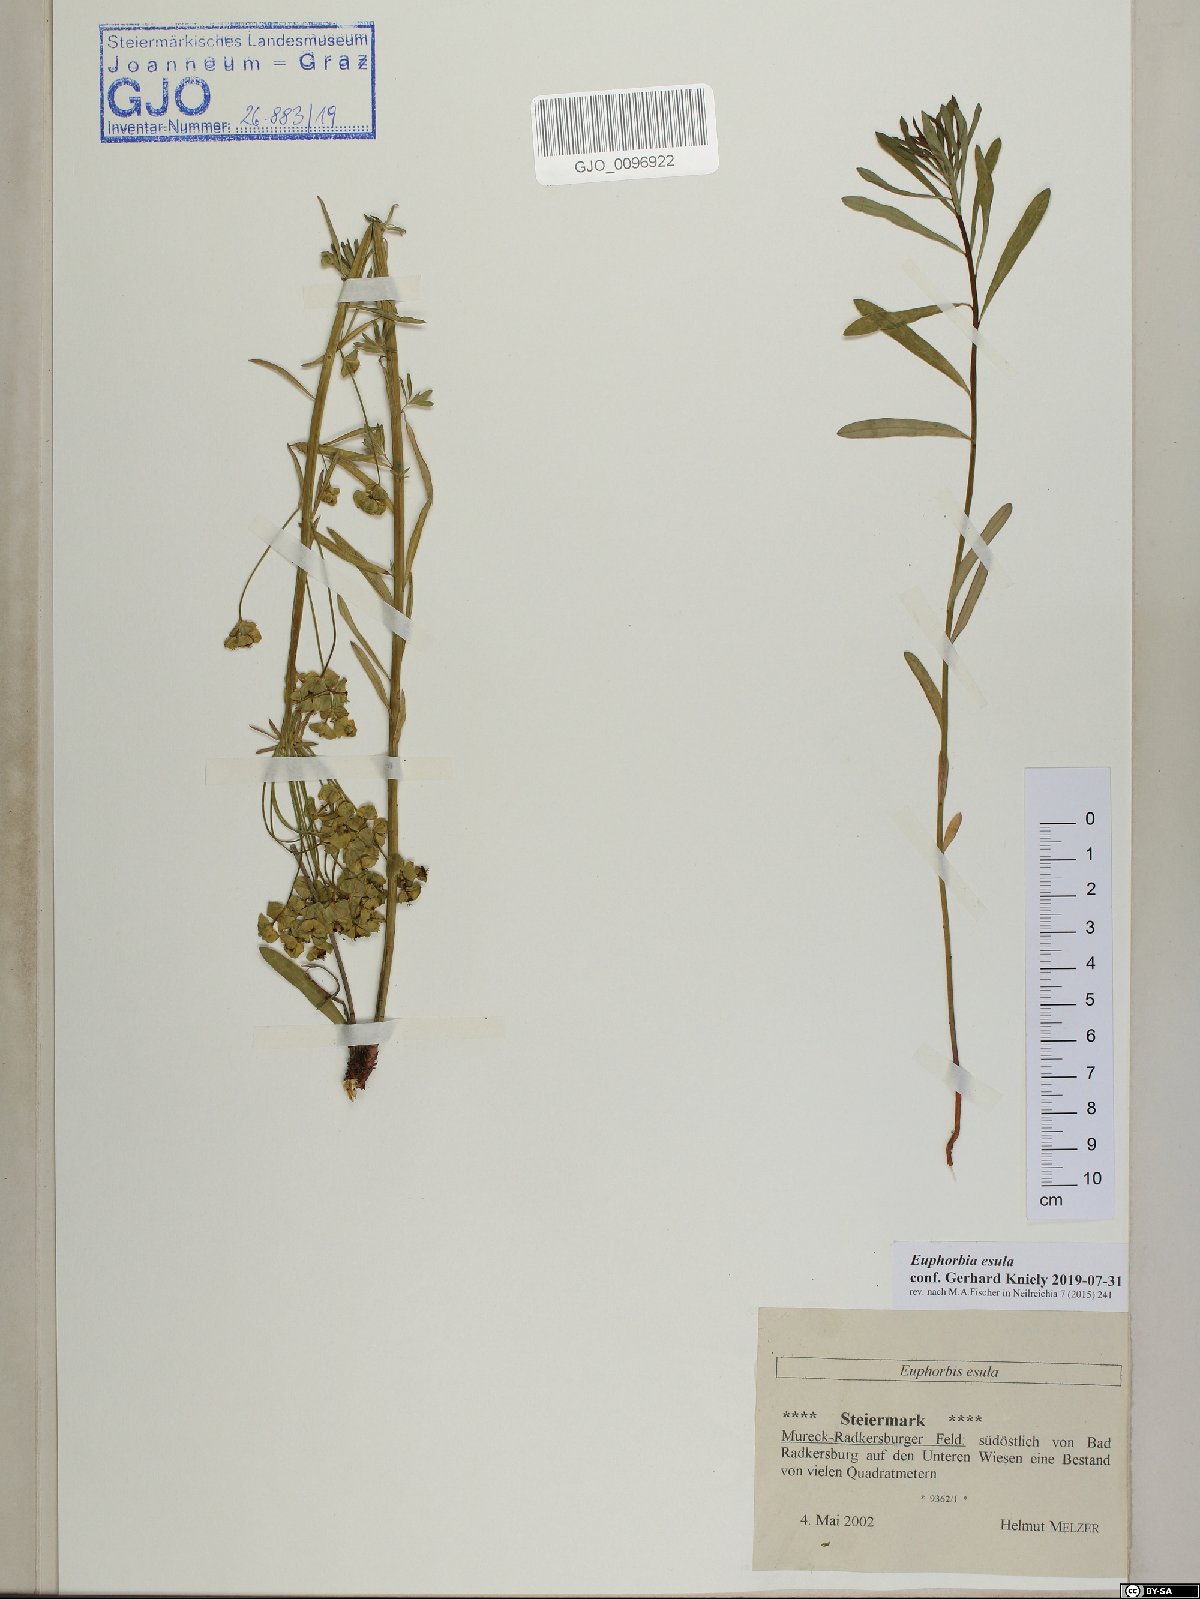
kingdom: Plantae
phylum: Tracheophyta
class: Magnoliopsida
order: Malpighiales
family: Euphorbiaceae
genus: Euphorbia
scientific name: Euphorbia esula
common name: Leafy spurge
